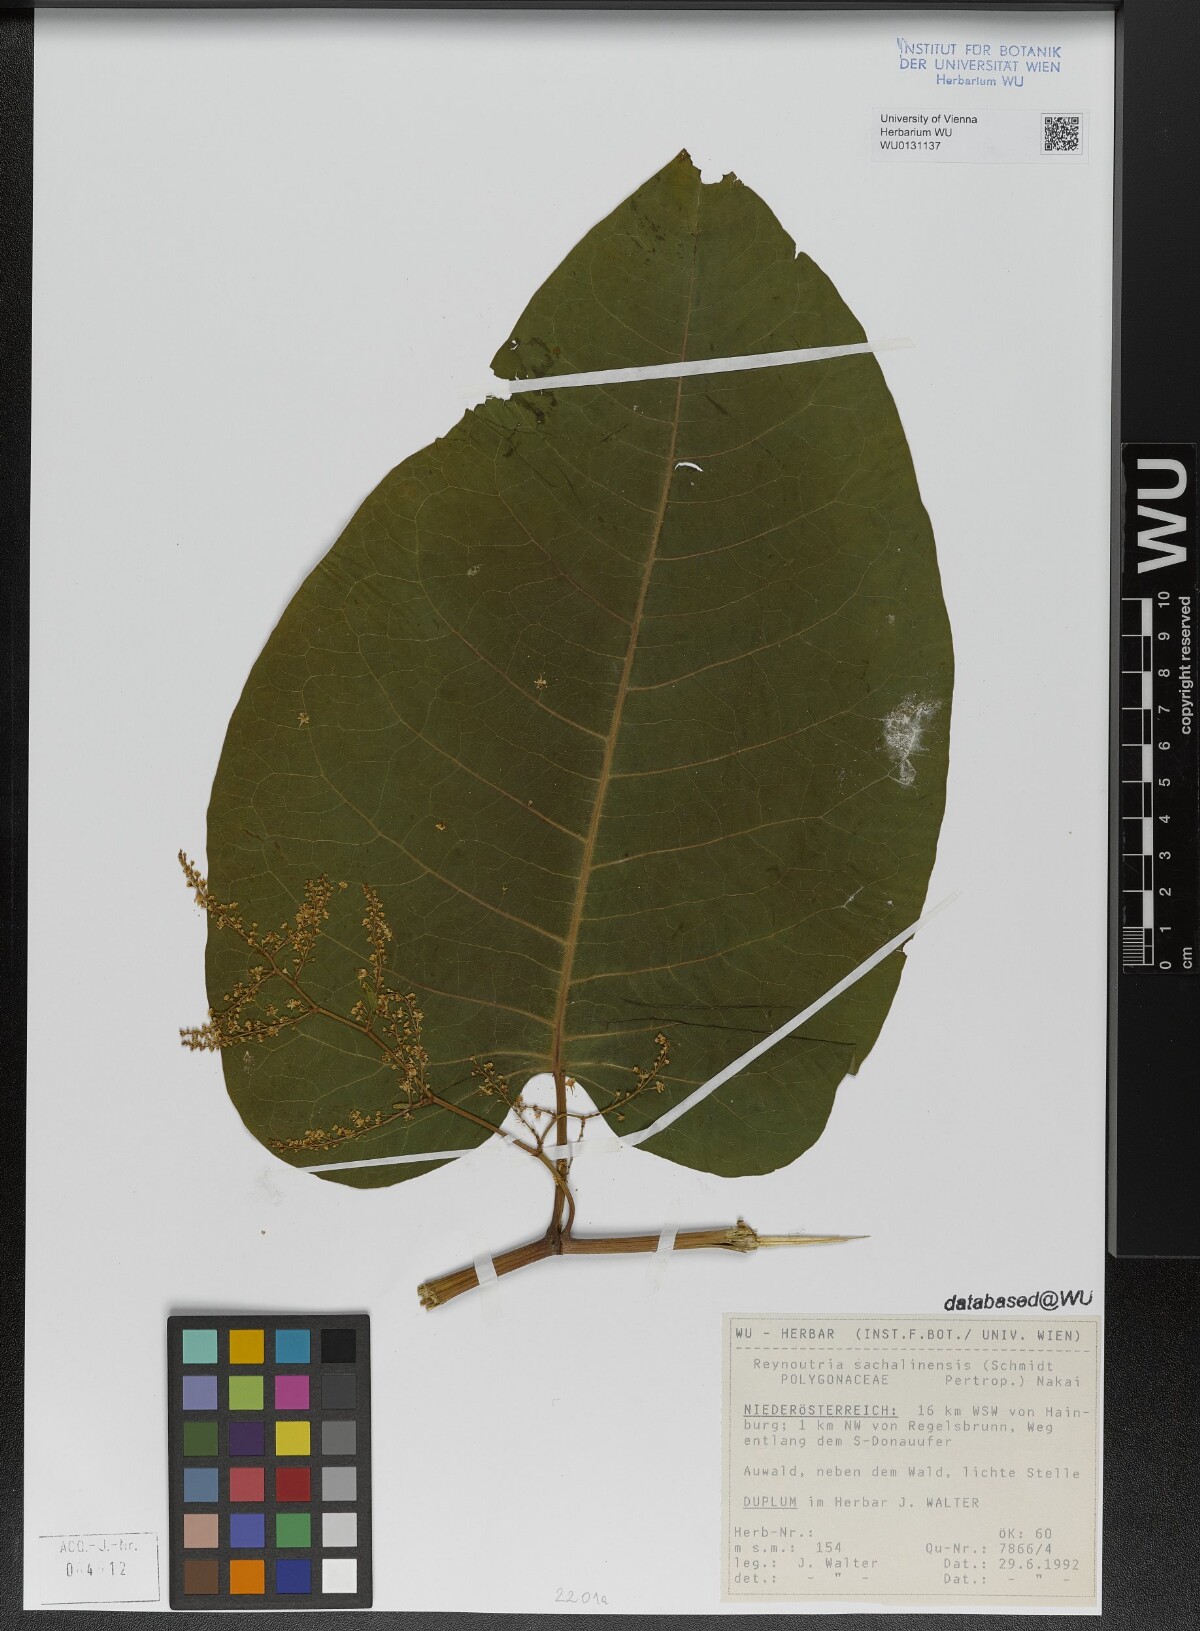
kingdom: Plantae
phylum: Tracheophyta
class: Magnoliopsida
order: Caryophyllales
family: Polygonaceae
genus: Reynoutria
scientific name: Reynoutria sachalinensis
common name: Giant knotweed
